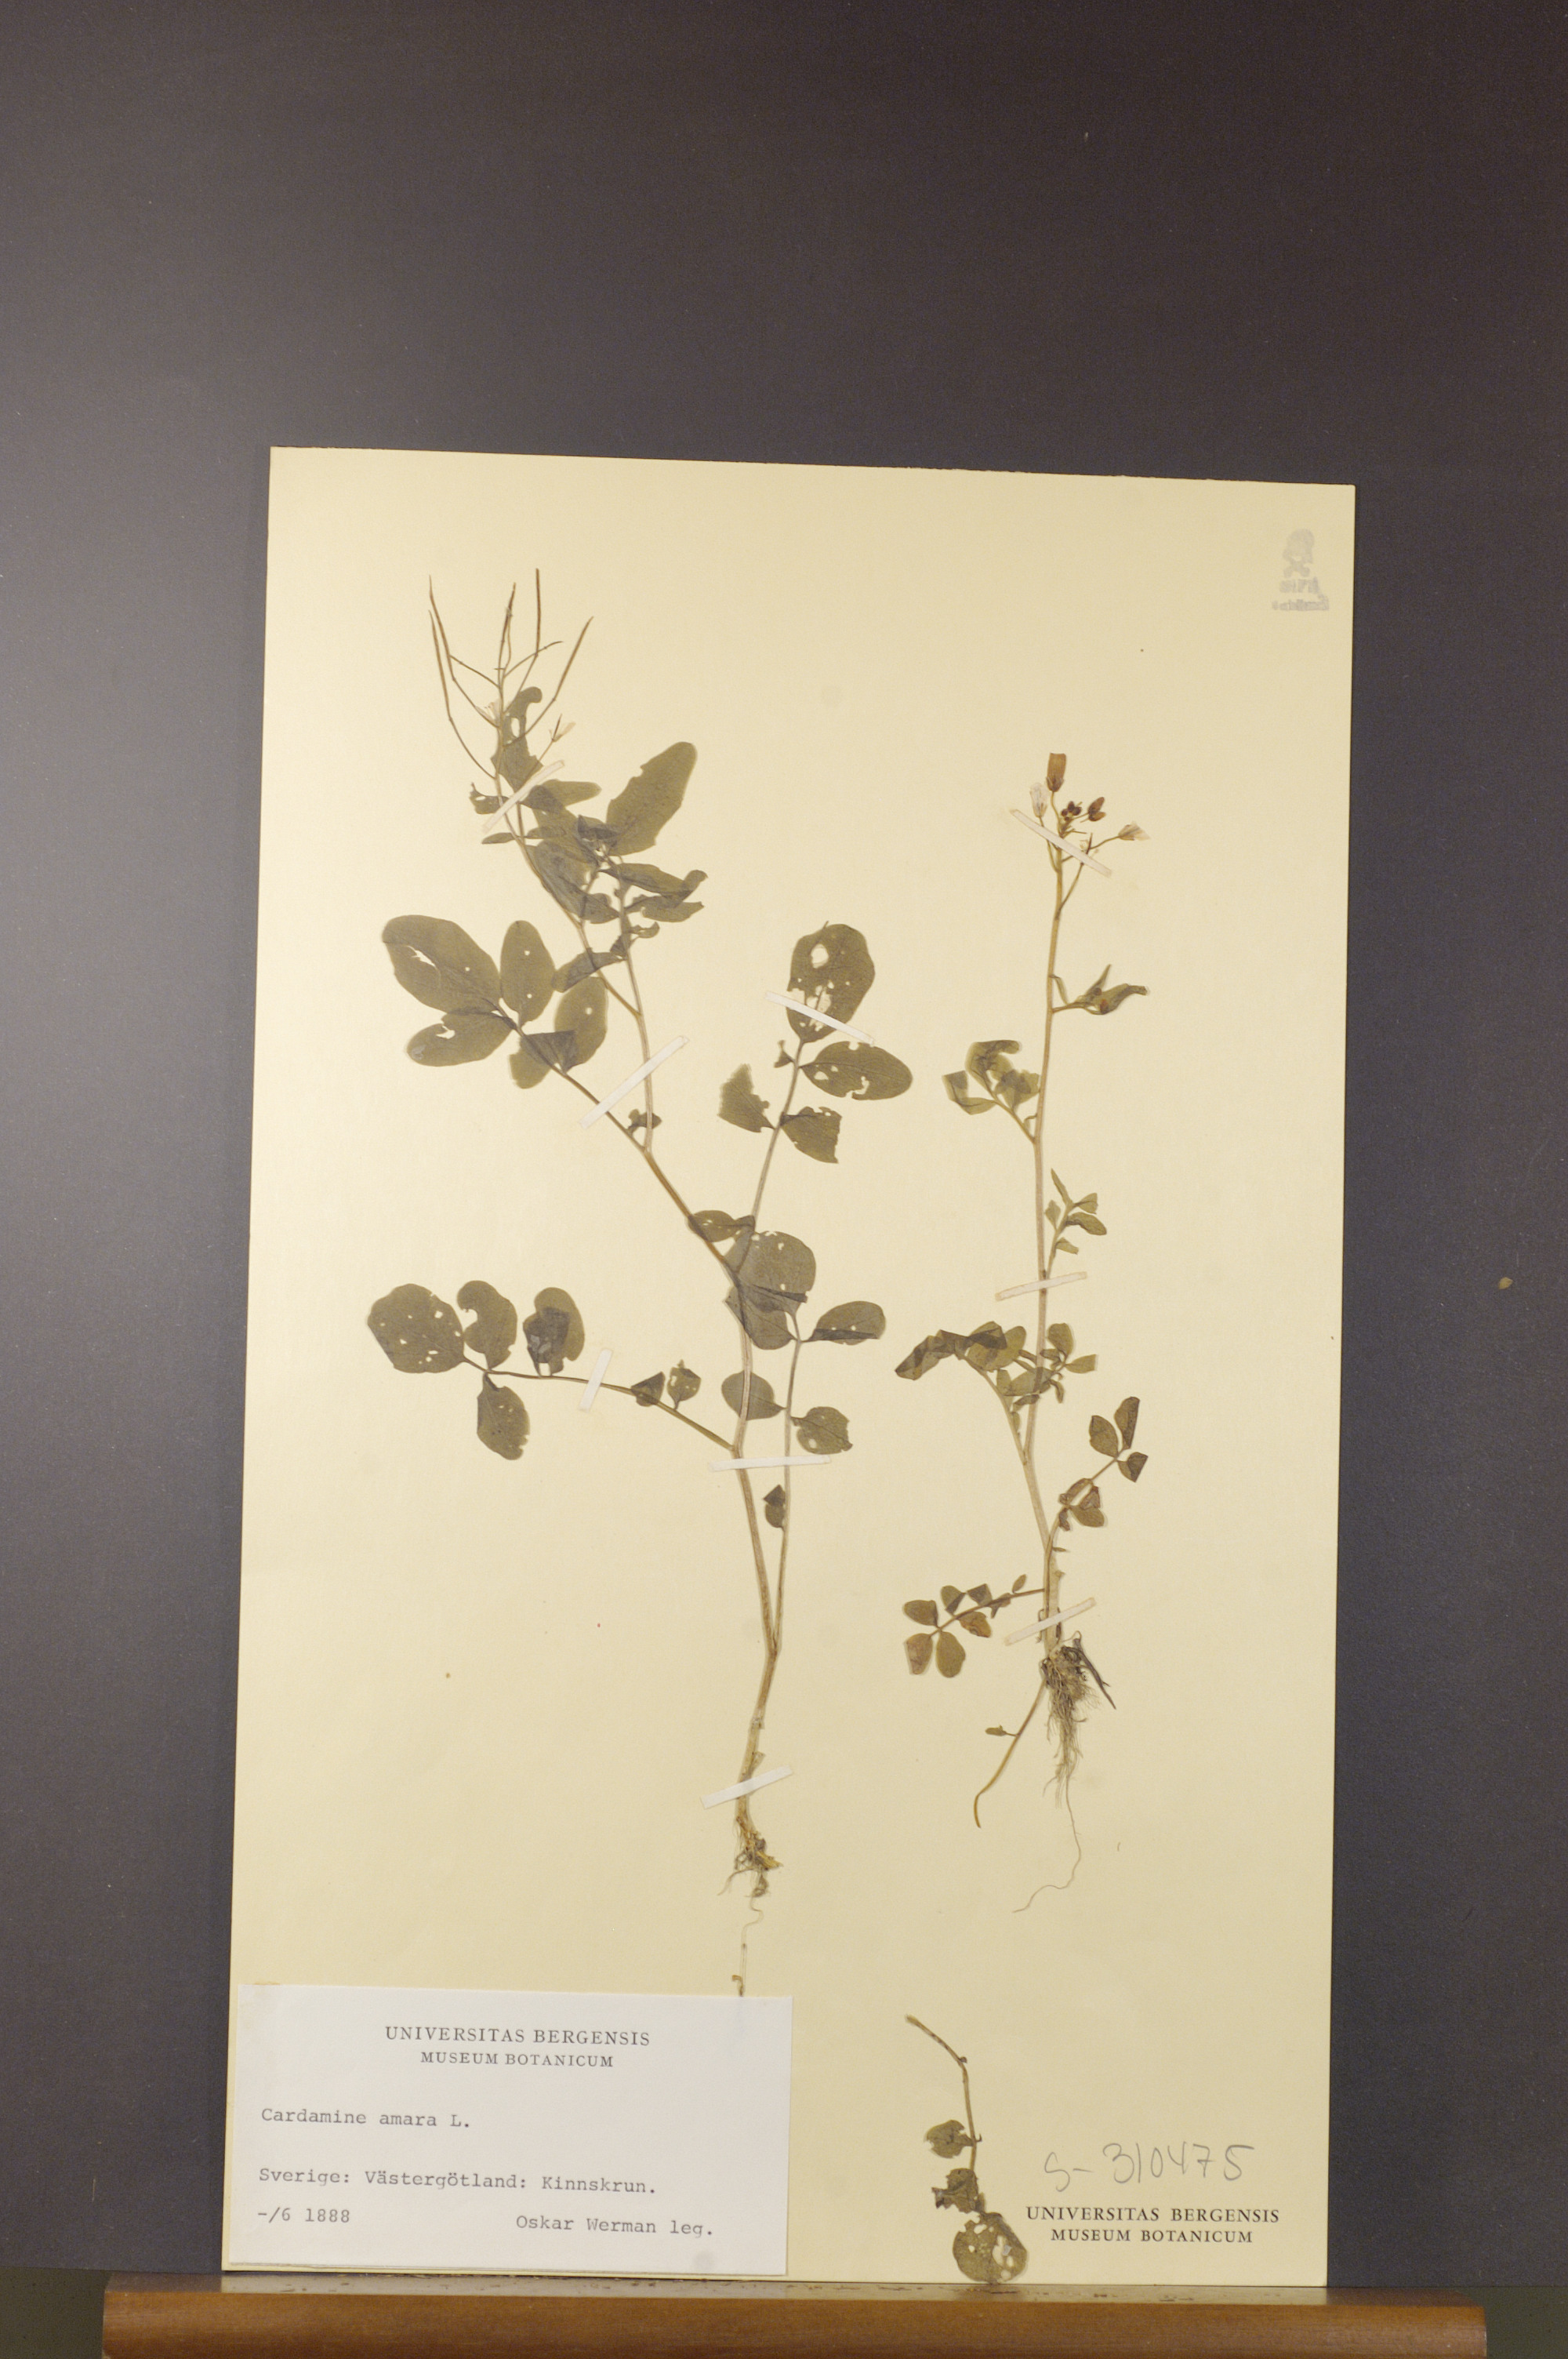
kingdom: Plantae
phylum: Tracheophyta
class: Magnoliopsida
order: Brassicales
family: Brassicaceae
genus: Cardamine
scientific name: Cardamine amara
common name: Large bitter-cress
